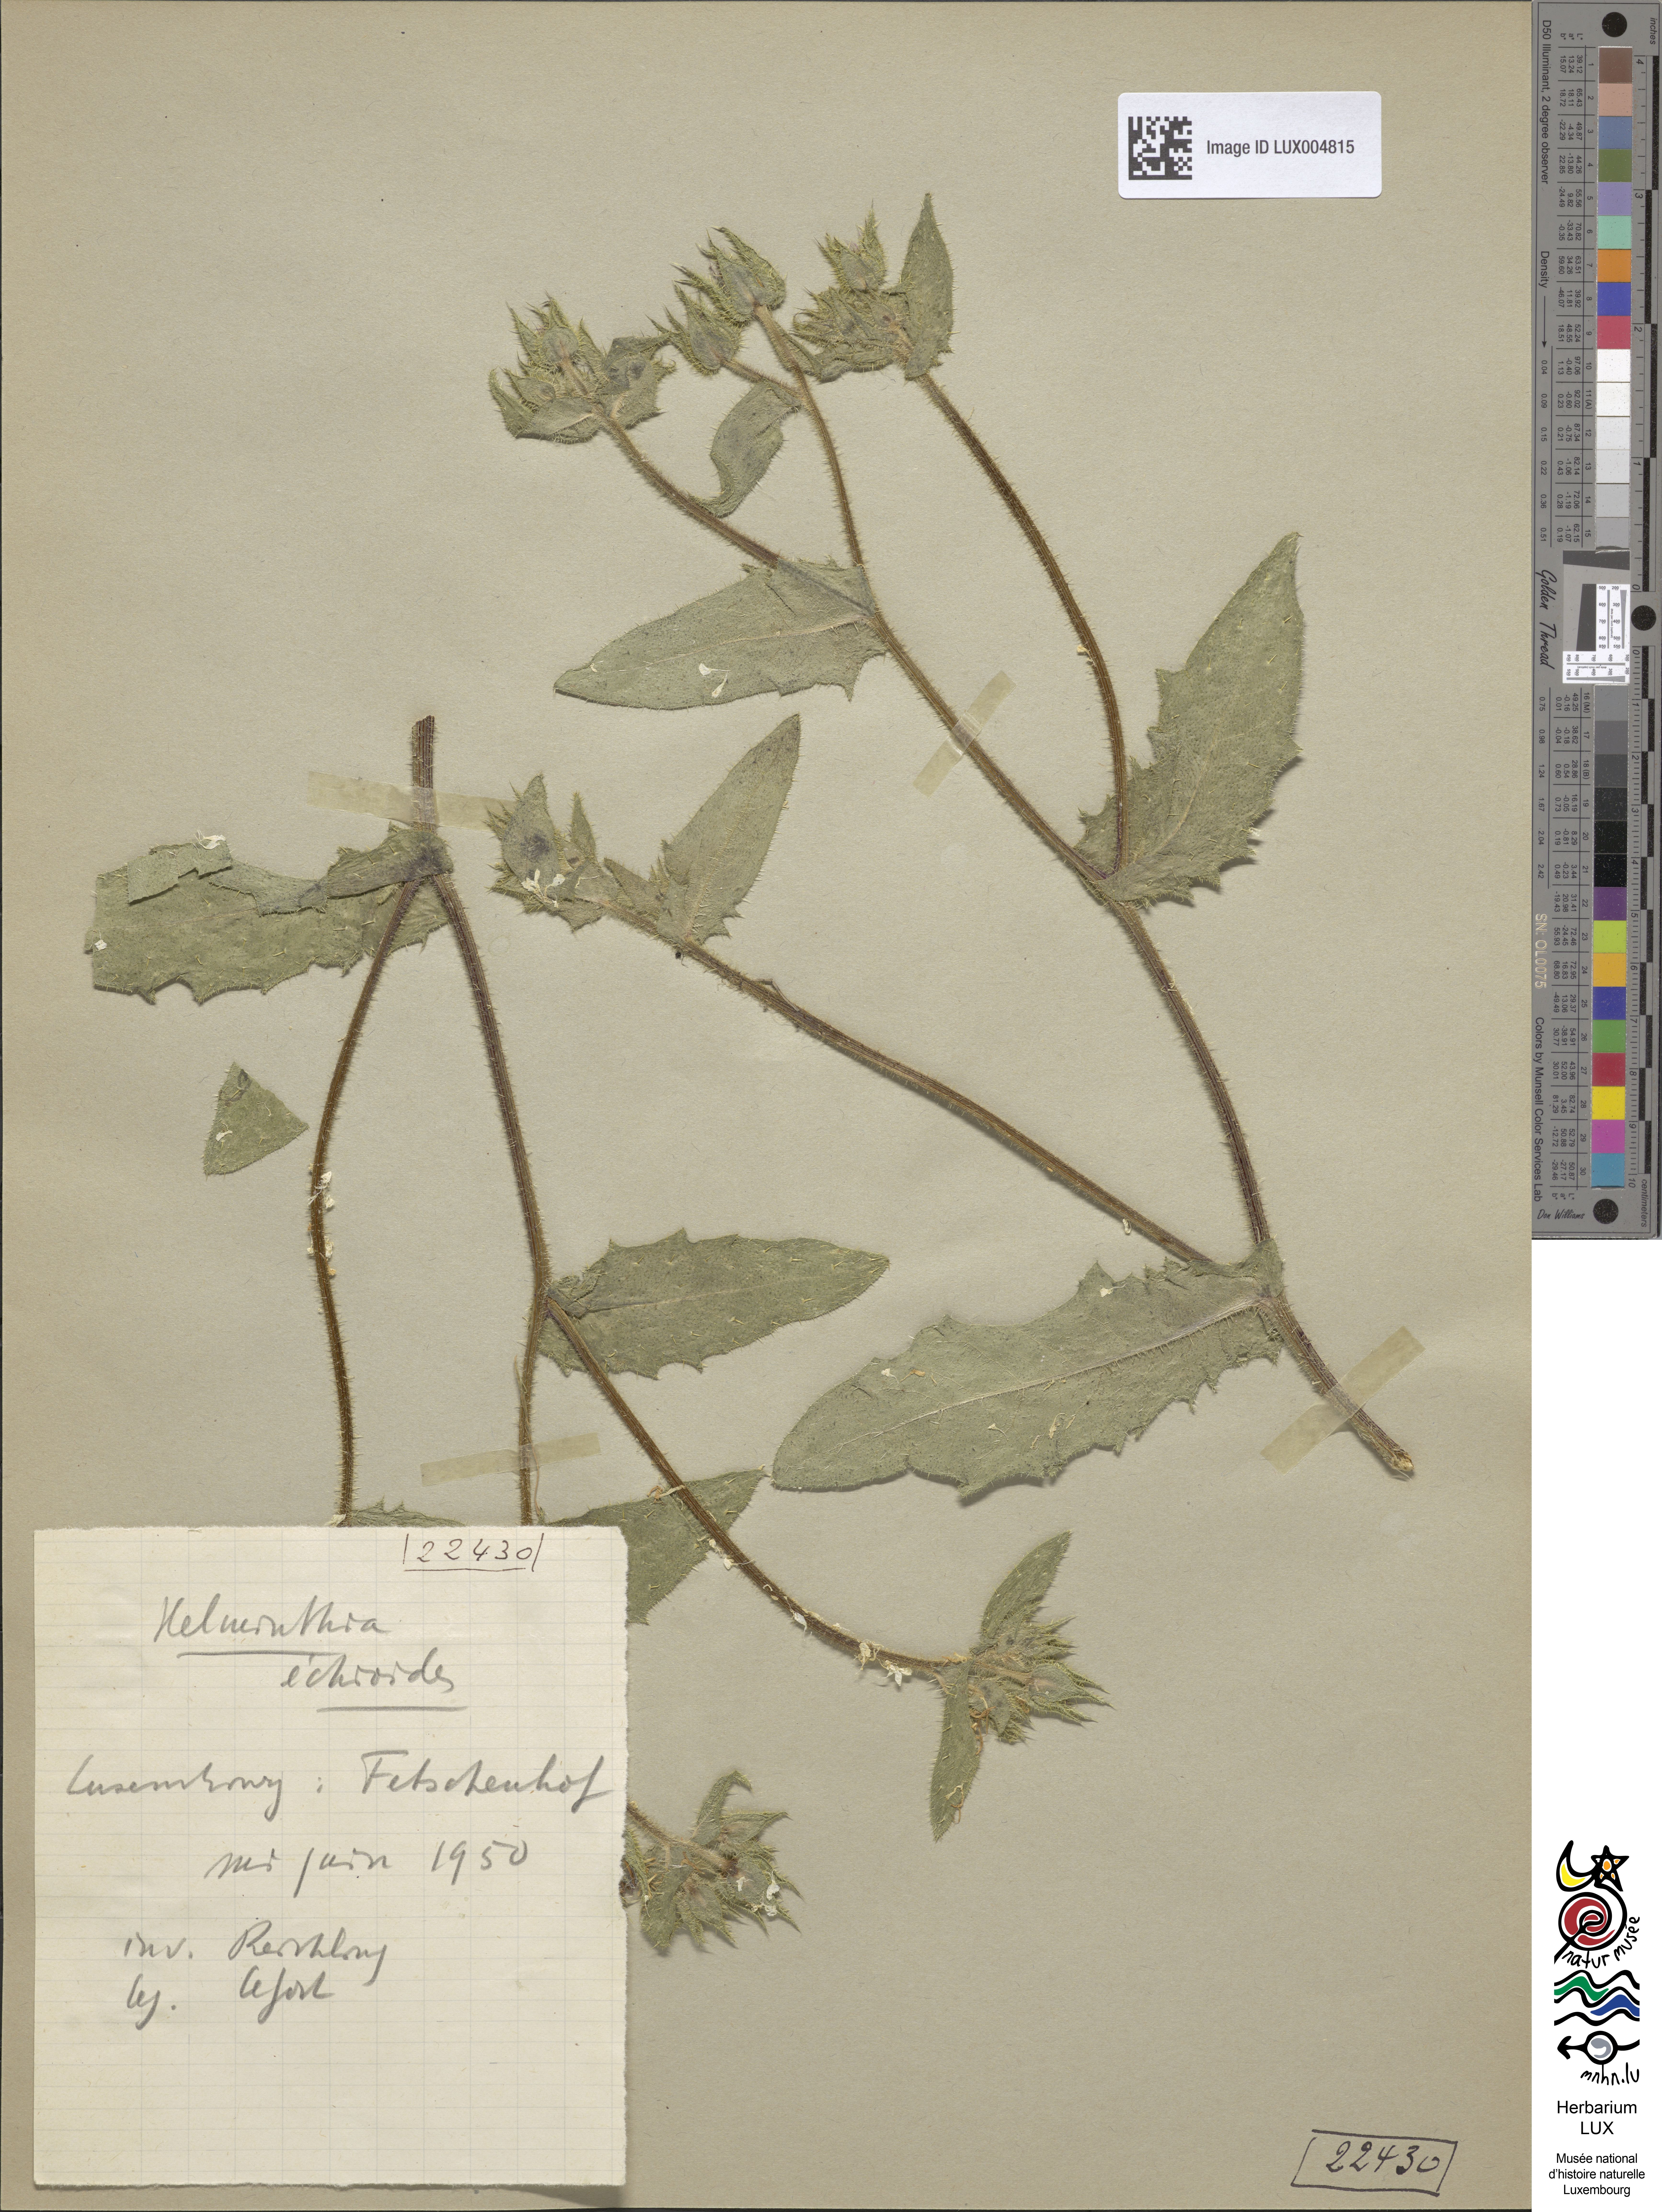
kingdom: Plantae
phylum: Tracheophyta
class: Magnoliopsida
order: Asterales
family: Asteraceae
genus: Helminthotheca
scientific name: Helminthotheca echioides
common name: Ox-tongue
